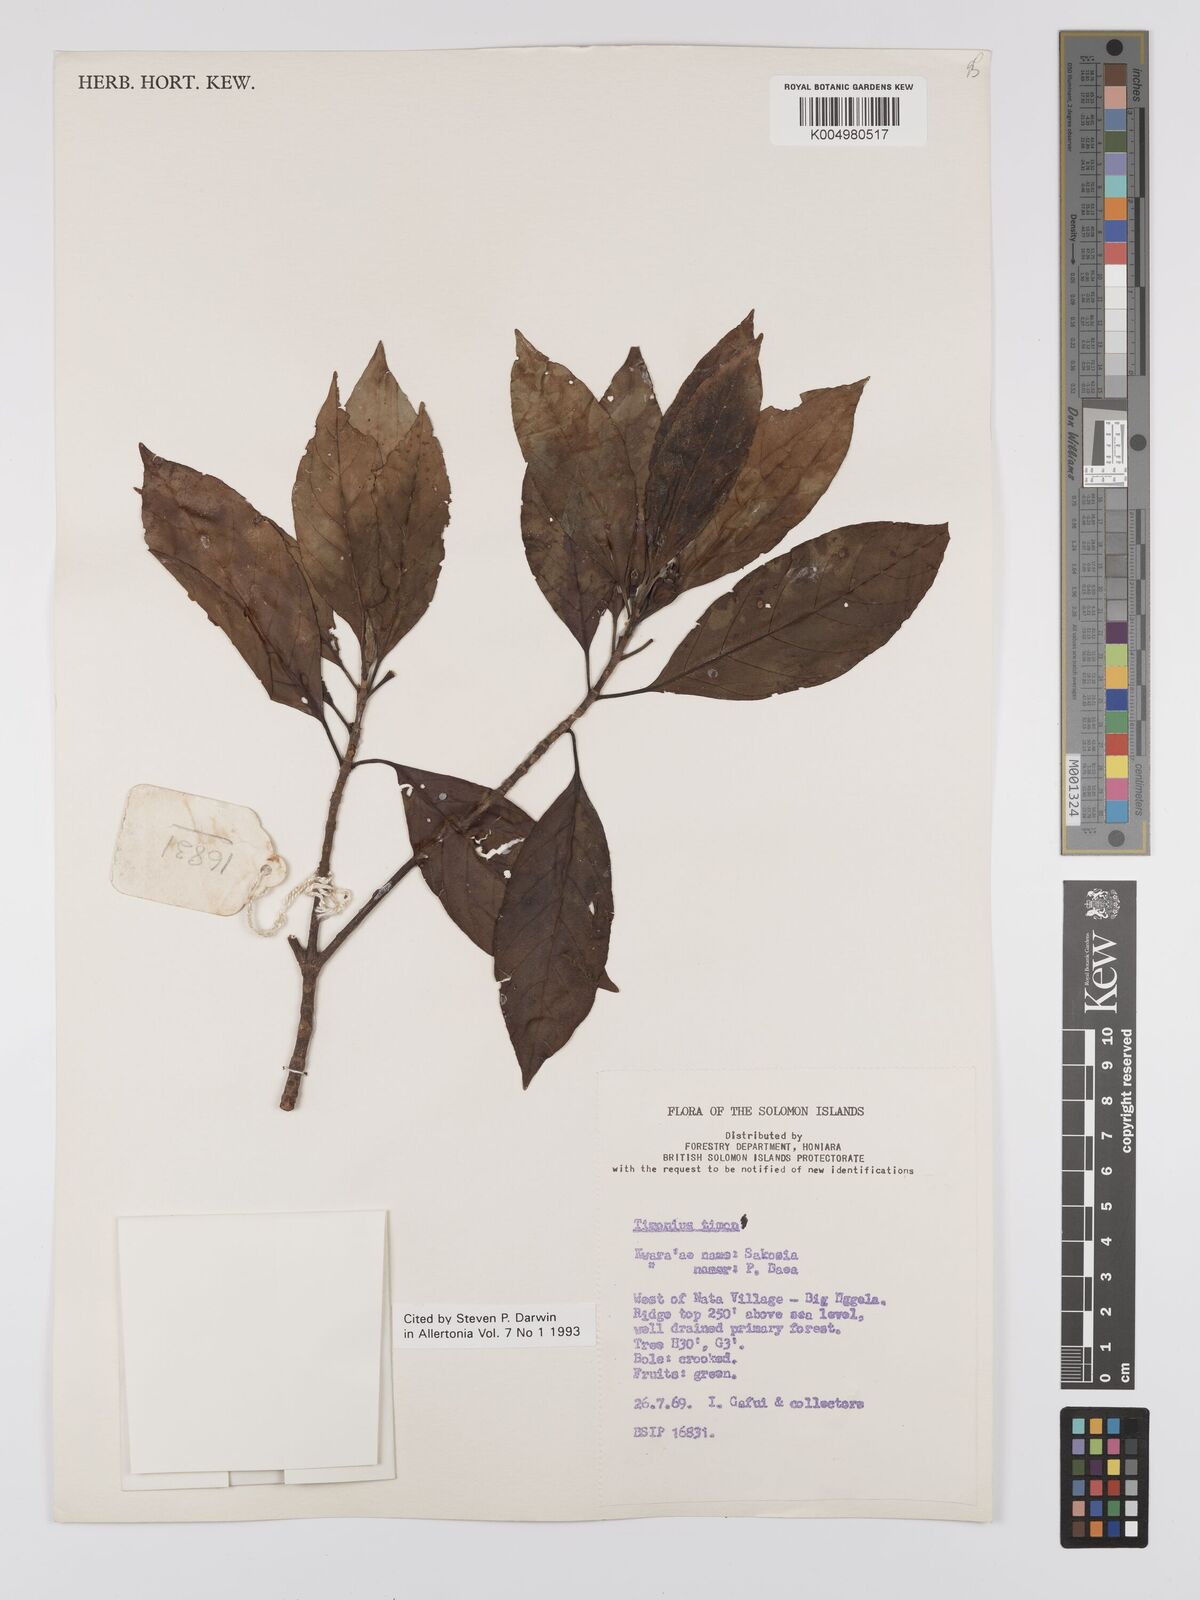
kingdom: Plantae
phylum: Tracheophyta
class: Magnoliopsida
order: Gentianales
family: Rubiaceae
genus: Timonius
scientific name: Timonius timon
